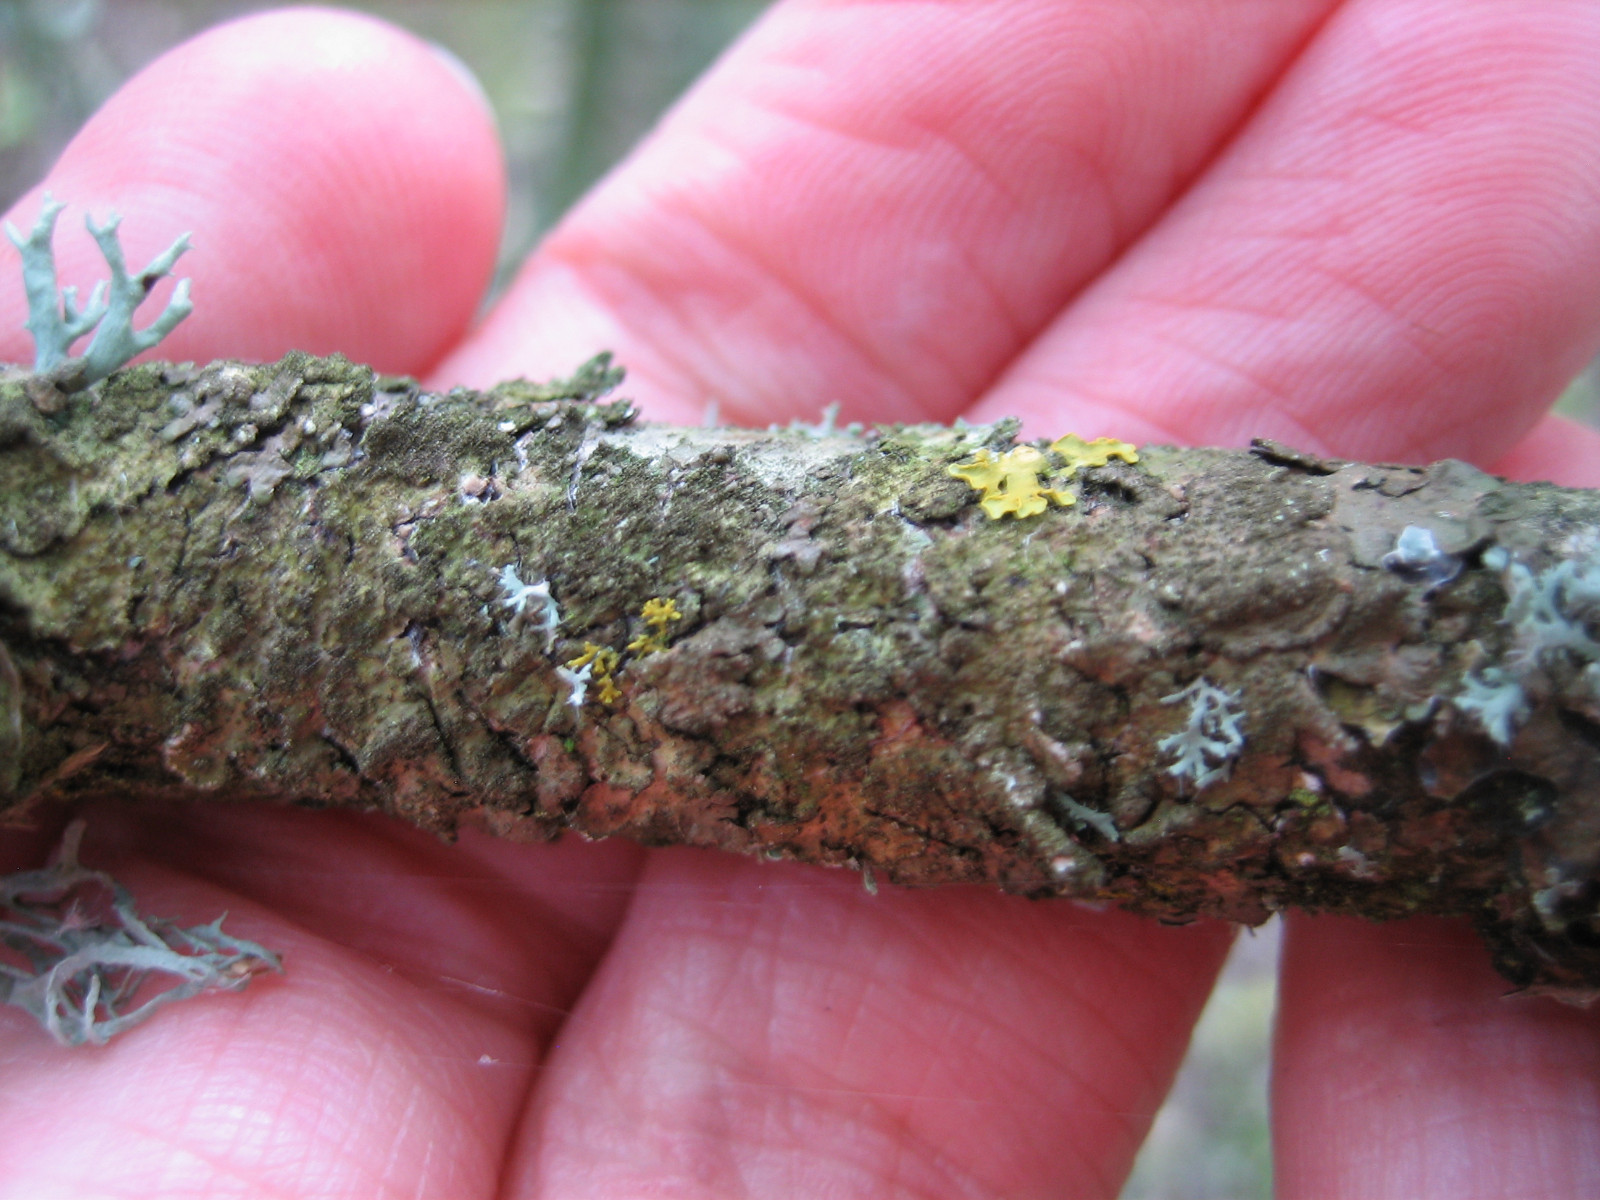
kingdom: Fungi
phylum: Ascomycota
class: Lecanoromycetes
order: Lecanorales
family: Parmeliaceae
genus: Melanelixia
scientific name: Melanelixia subaurifera
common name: guldpudret skållav
